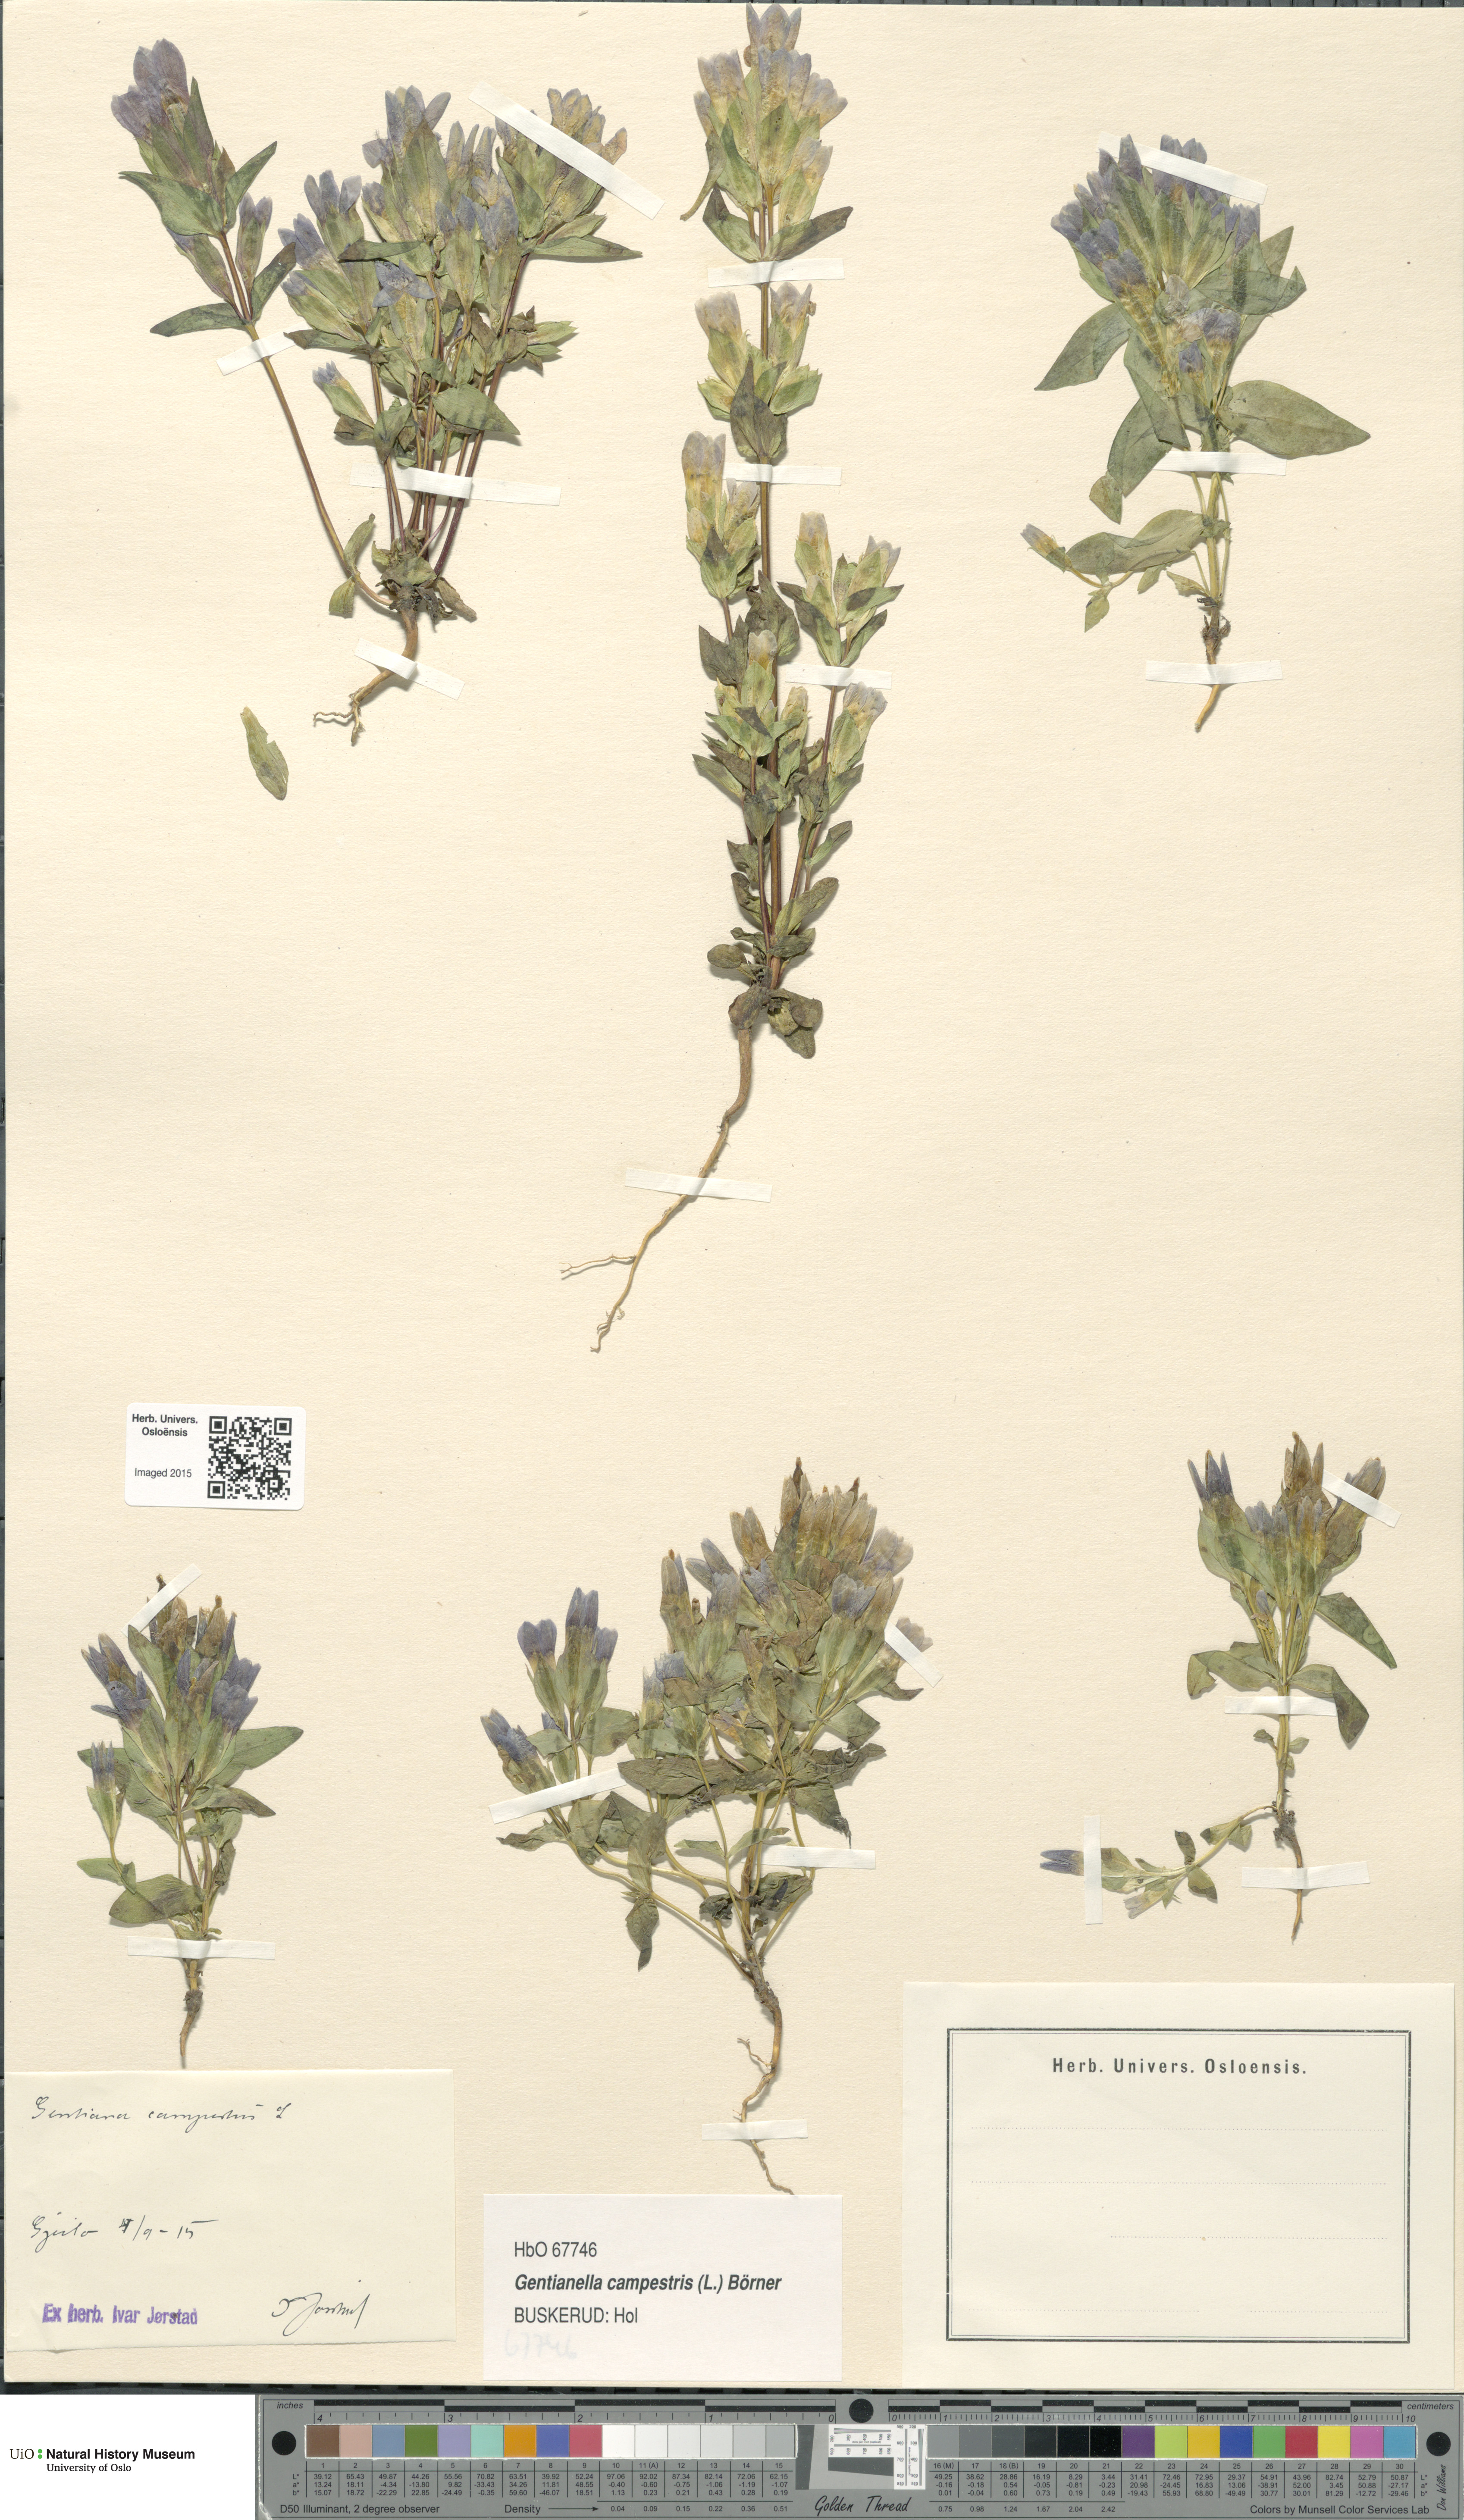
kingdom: Plantae
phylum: Tracheophyta
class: Magnoliopsida
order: Gentianales
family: Gentianaceae
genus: Gentianella
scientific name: Gentianella campestris
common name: Field gentian
